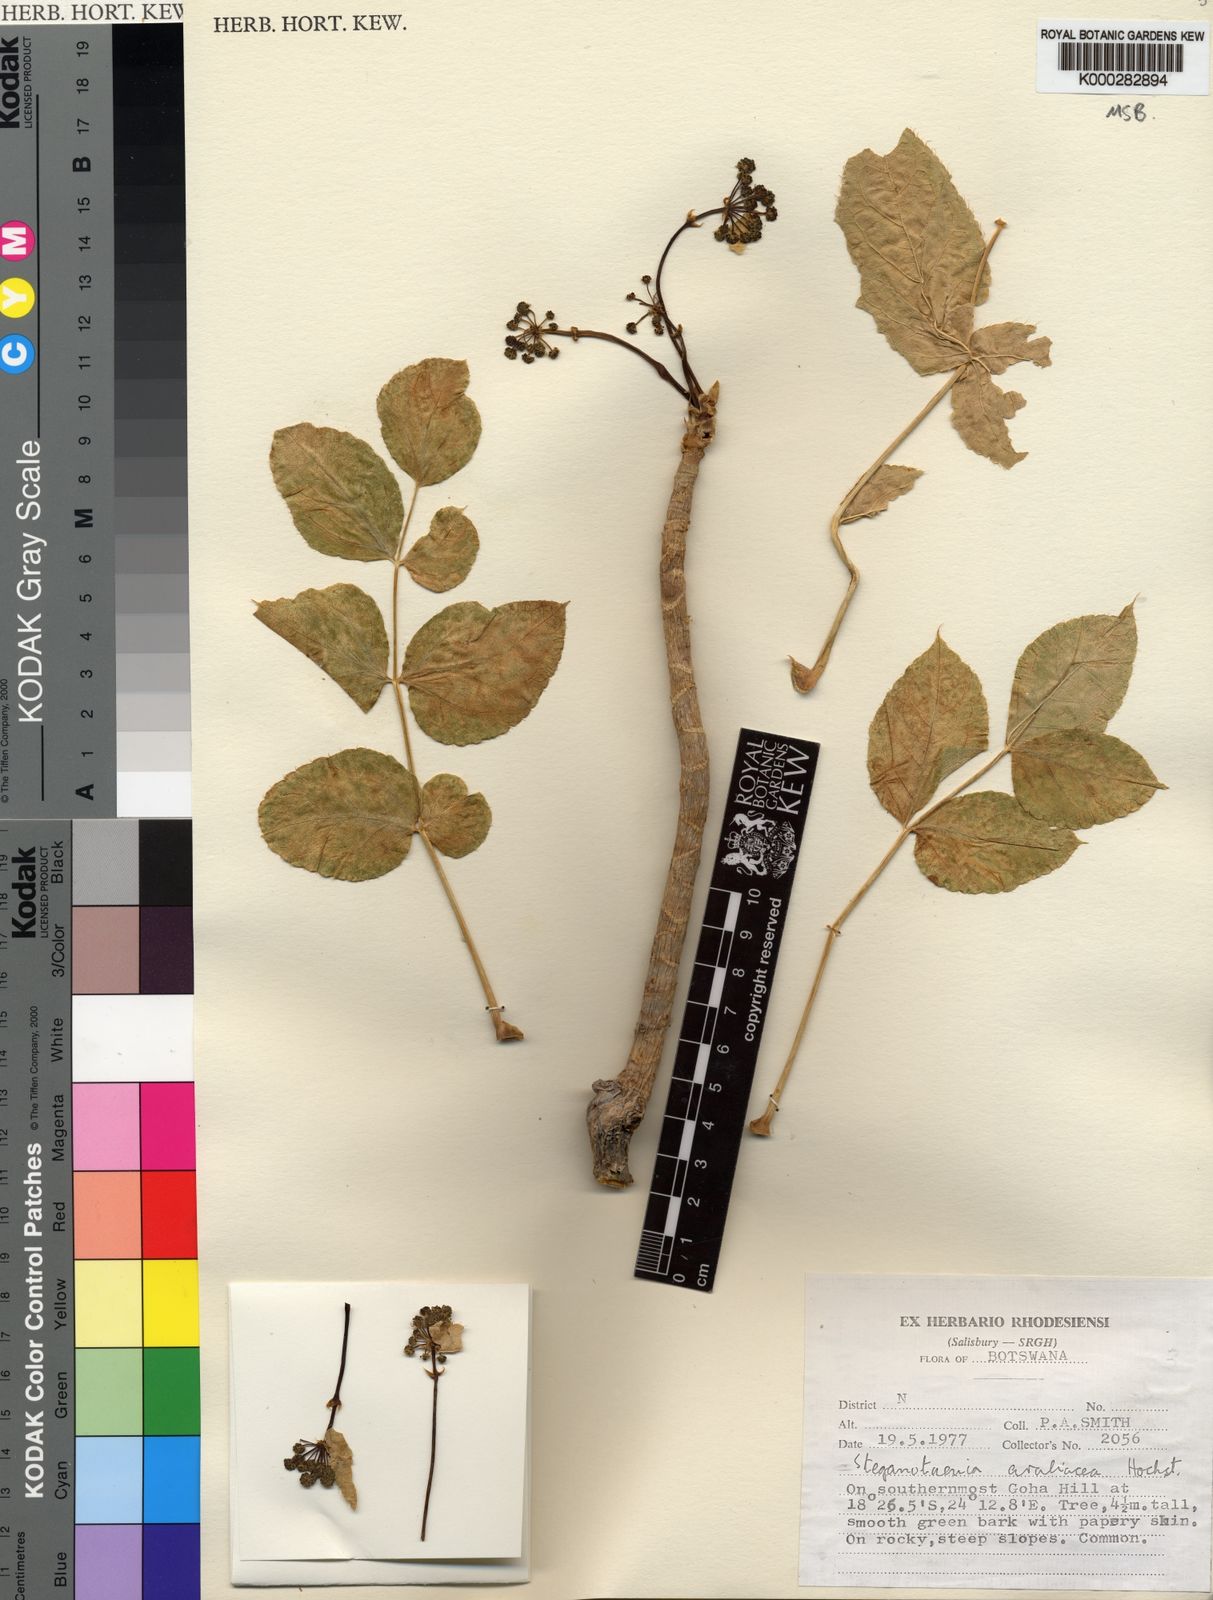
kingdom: Plantae
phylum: Tracheophyta
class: Magnoliopsida
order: Apiales
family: Apiaceae
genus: Steganotaenia
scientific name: Steganotaenia araliacea
